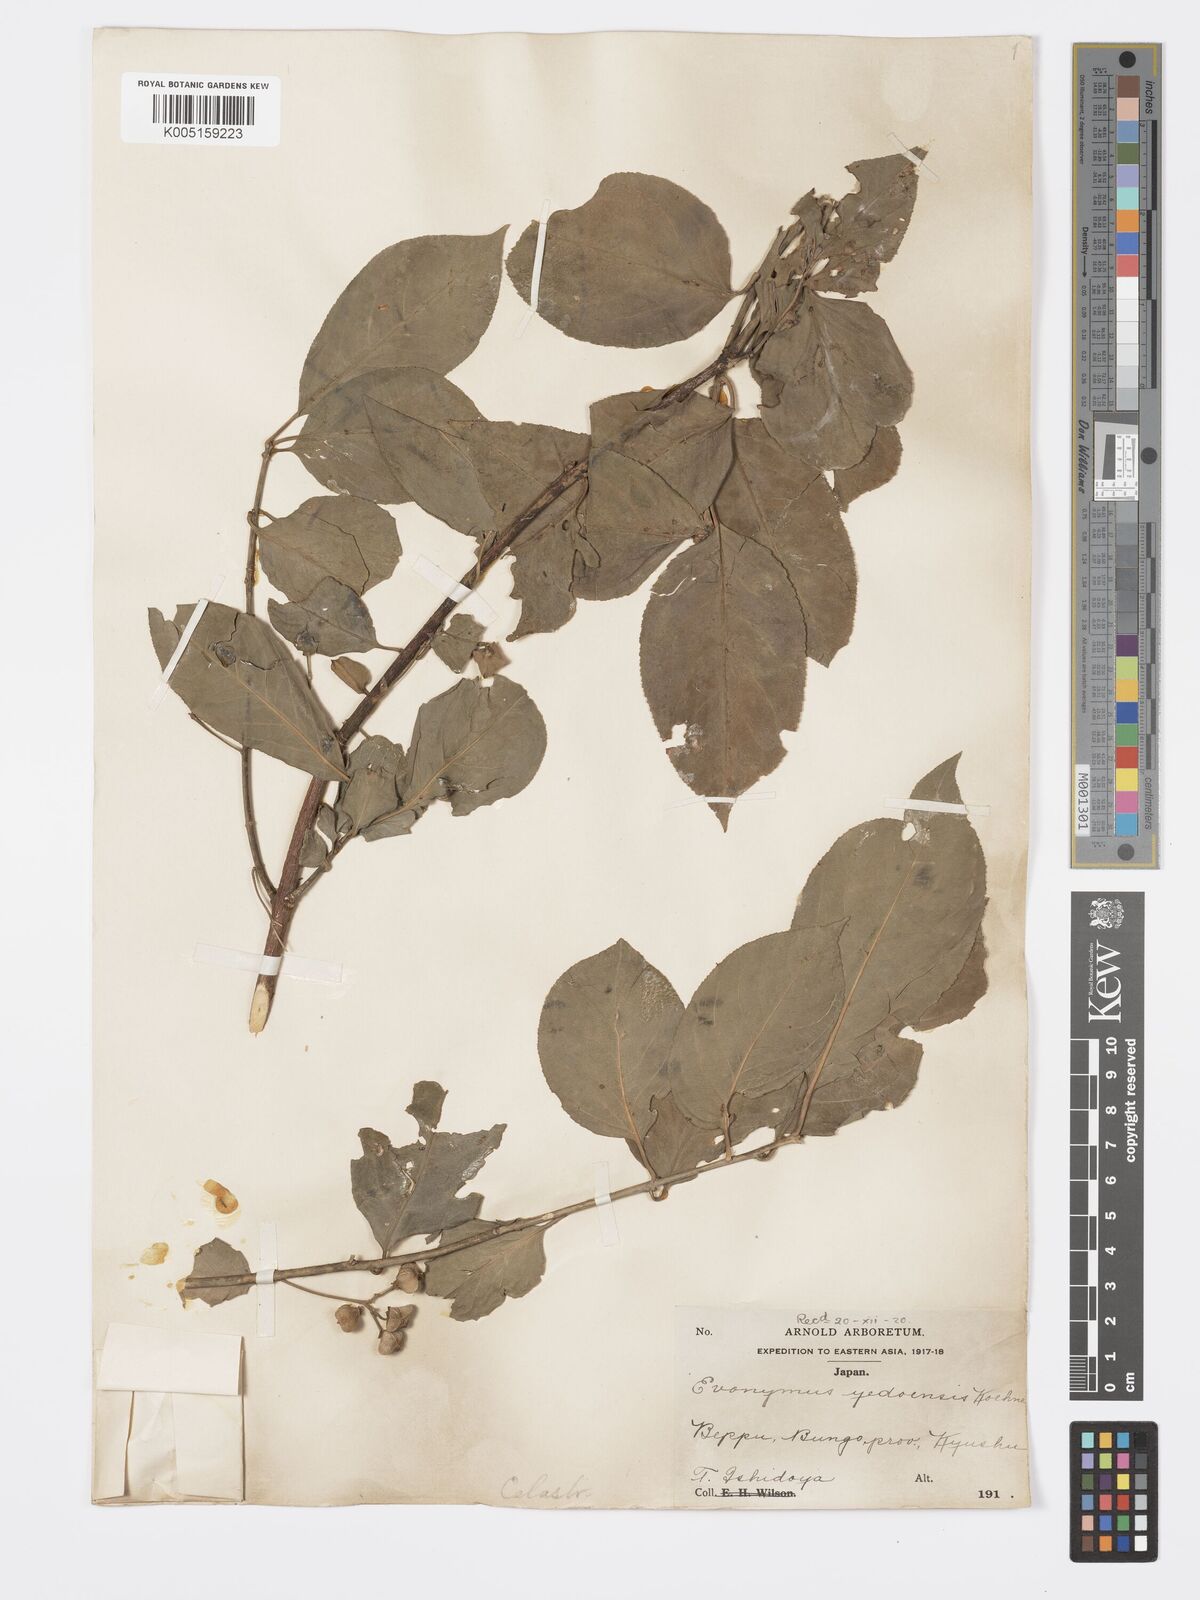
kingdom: Plantae
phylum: Tracheophyta
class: Magnoliopsida
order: Celastrales
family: Celastraceae
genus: Euonymus
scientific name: Euonymus hamiltonianus
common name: Hamilton's spindletree
